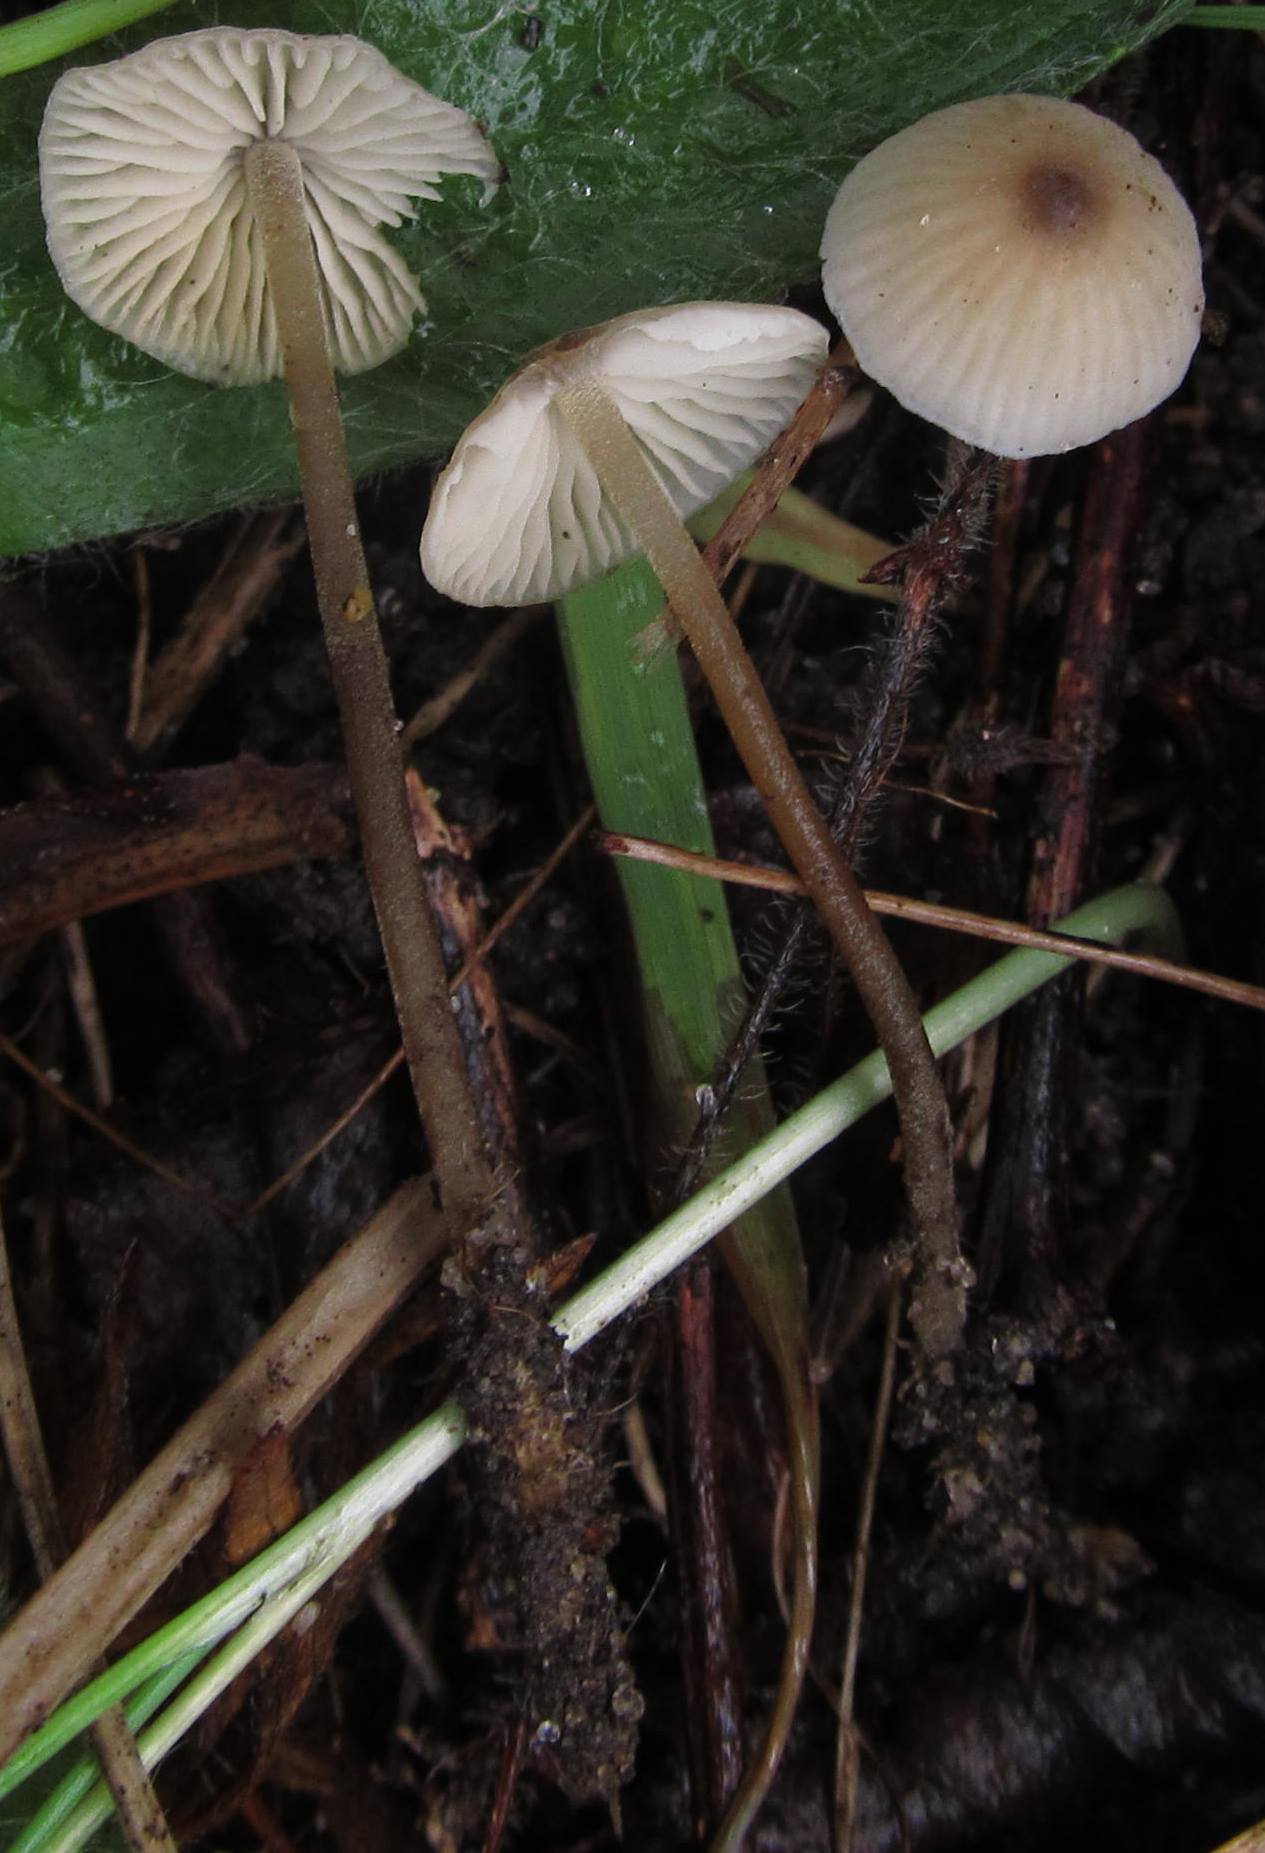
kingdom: Fungi
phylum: Basidiomycota
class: Agaricomycetes
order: Agaricales
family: Tricholomataceae
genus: Mycenella
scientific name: Mycenella trachyspora
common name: rødprikket dughat
